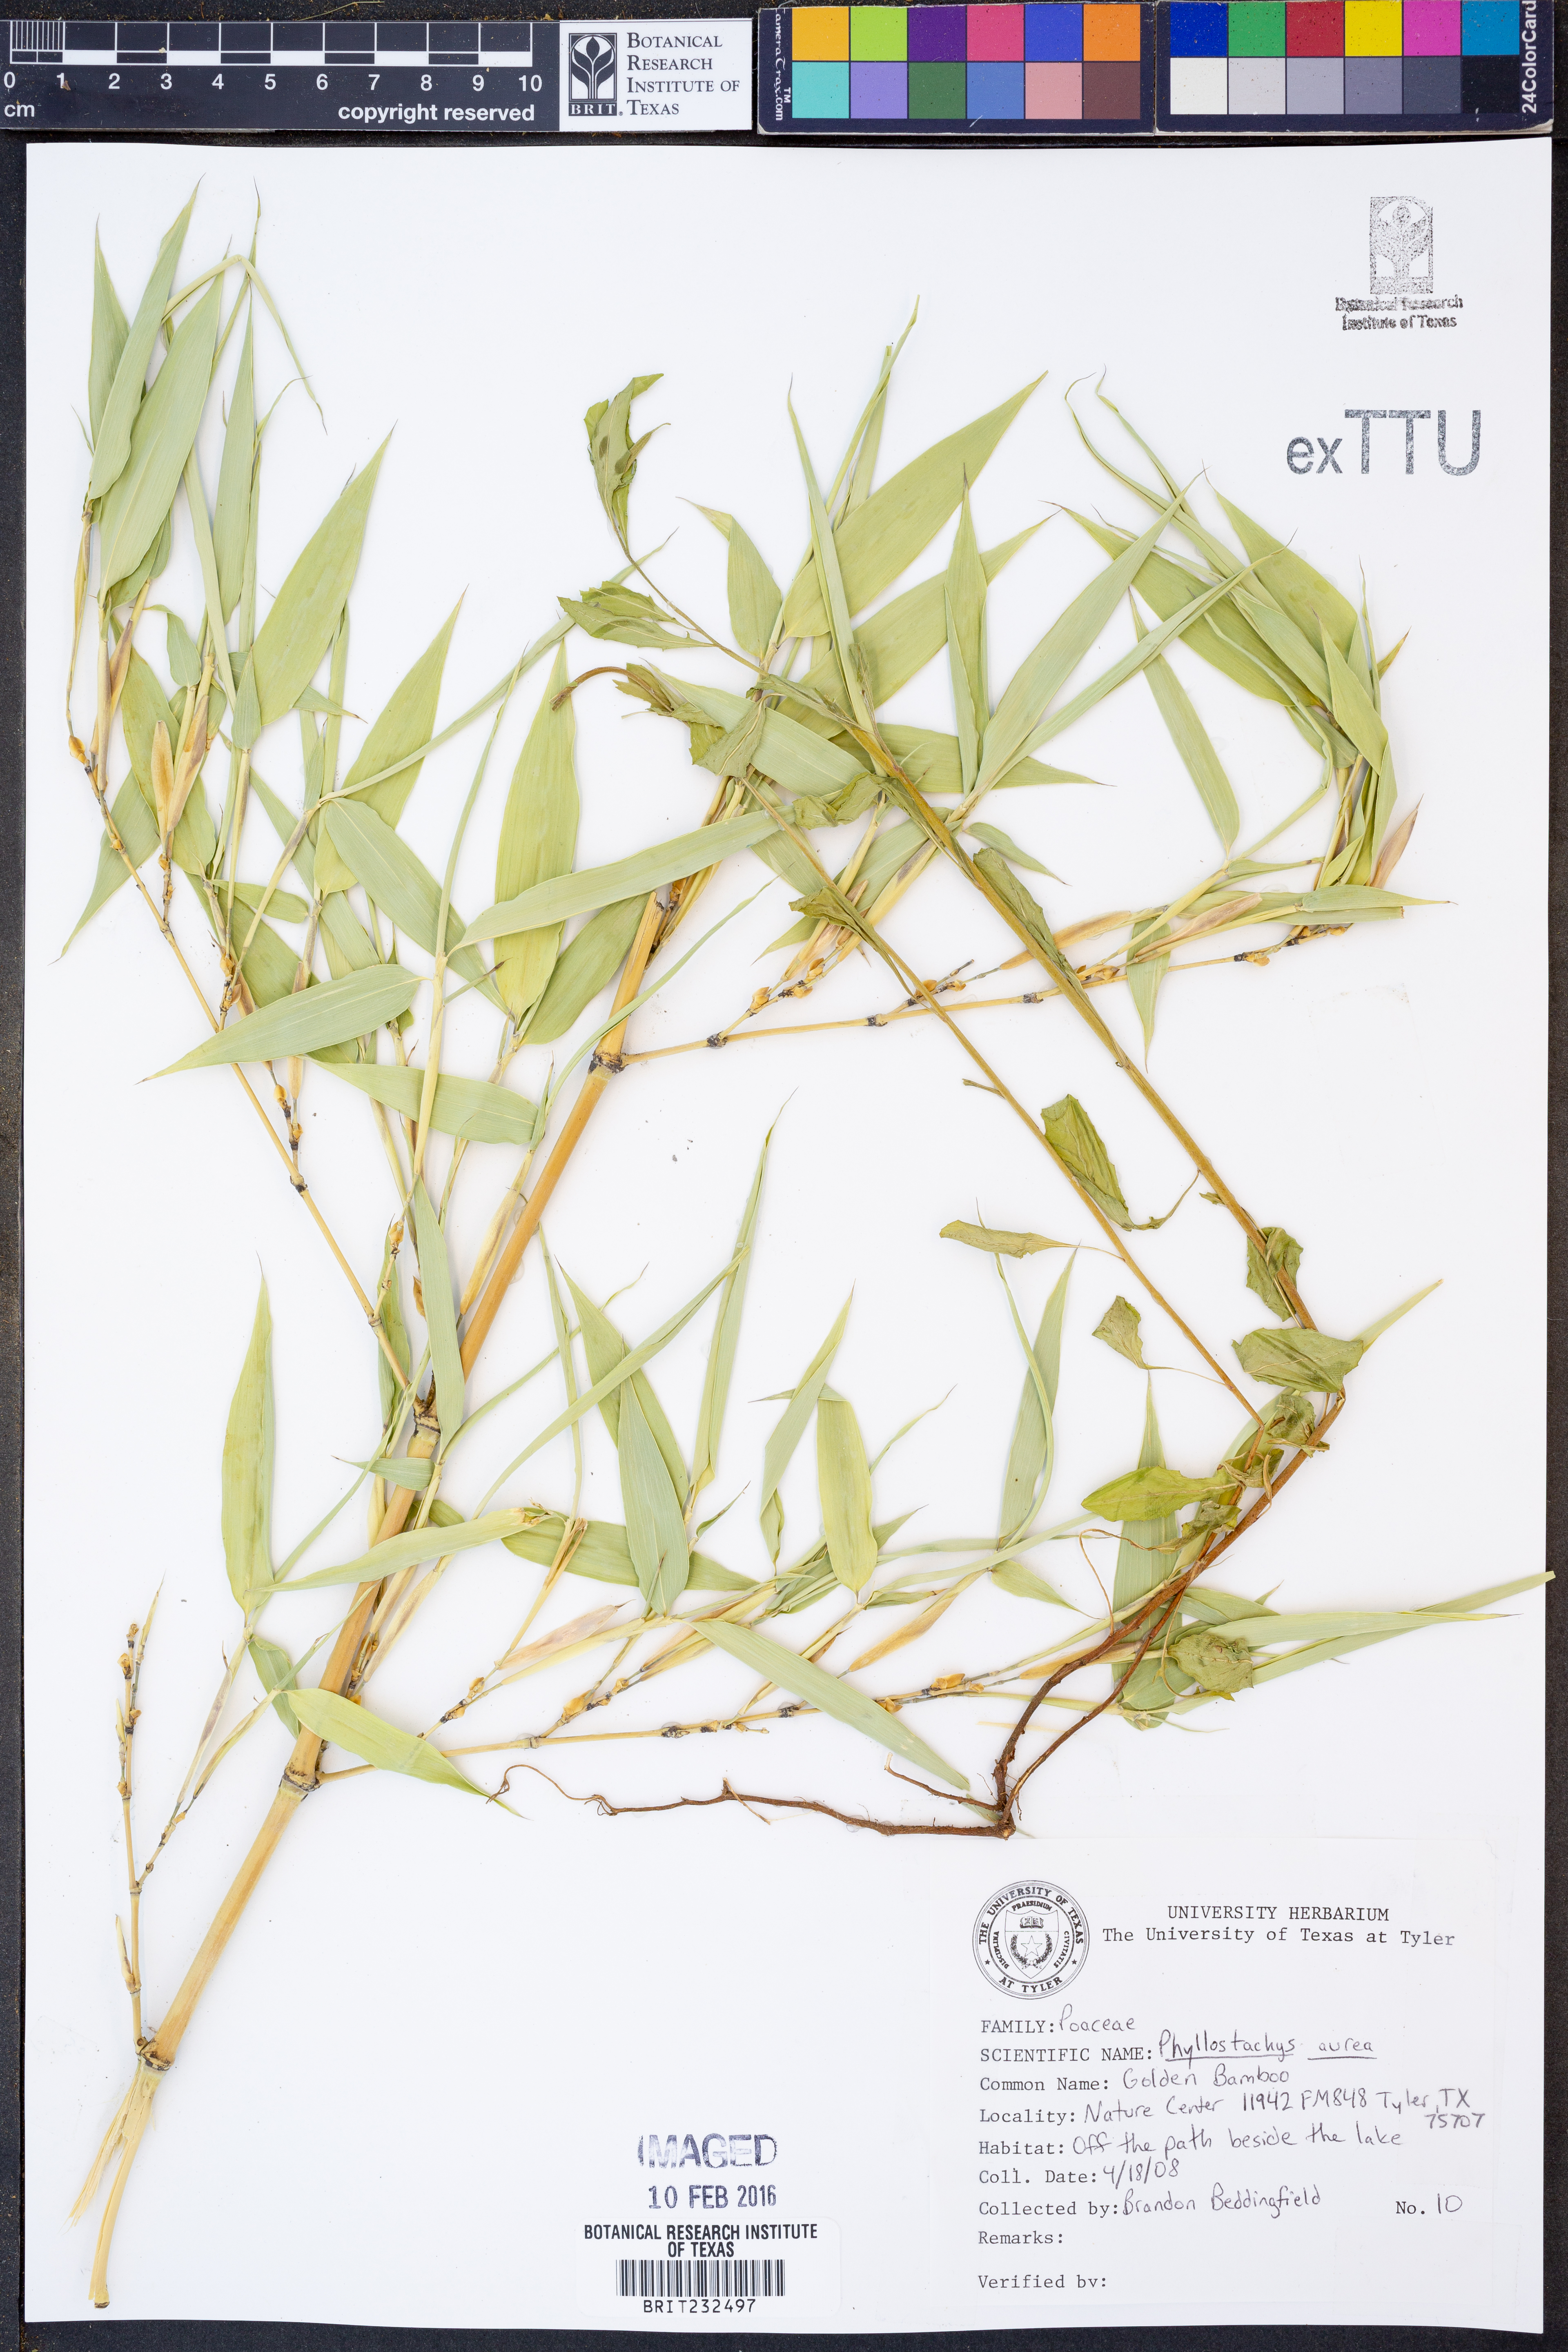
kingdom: Plantae
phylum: Tracheophyta
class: Liliopsida
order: Poales
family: Poaceae
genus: Phyllostachys
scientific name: Phyllostachys aurea
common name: Golden bamboo
